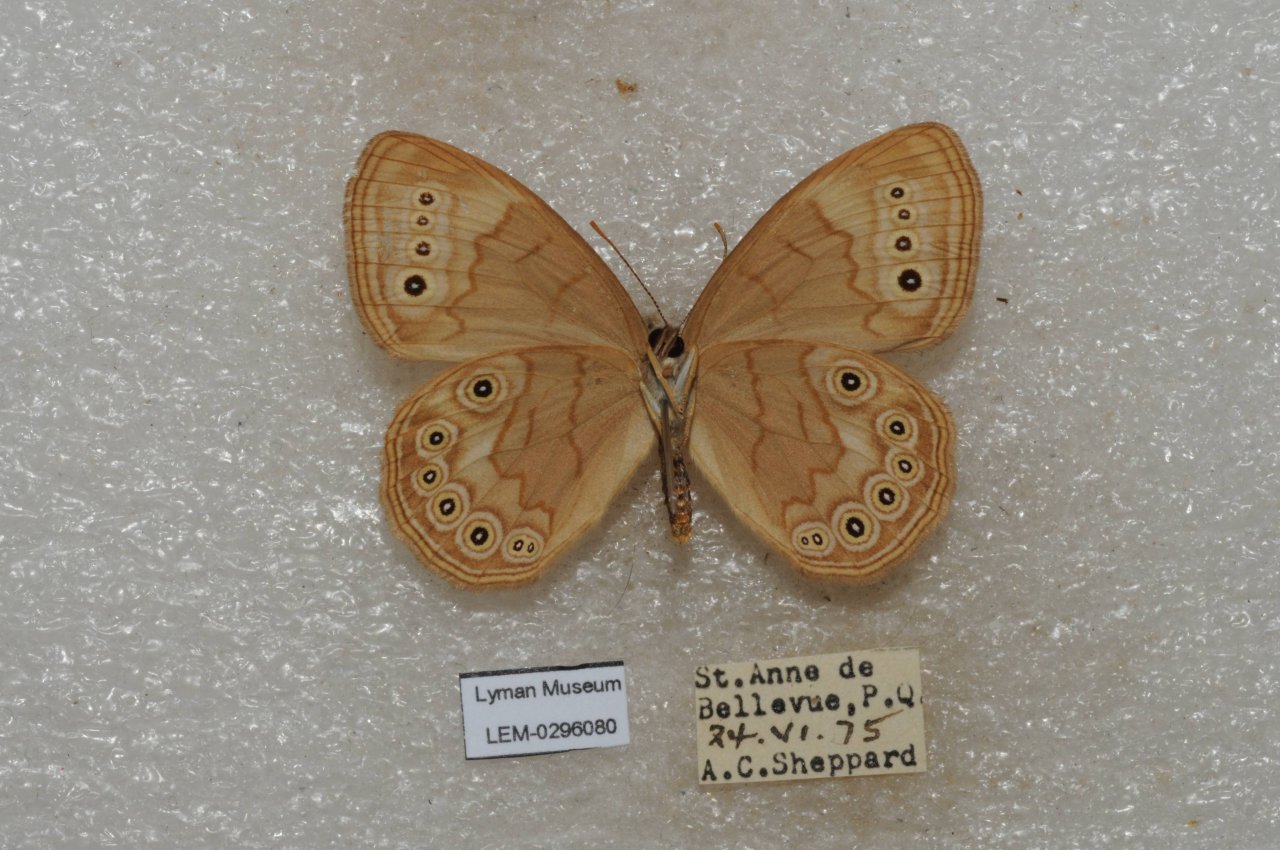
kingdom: Animalia
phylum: Arthropoda
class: Insecta
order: Lepidoptera
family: Nymphalidae
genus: Lethe
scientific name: Lethe eurydice
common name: Eyed Brown
